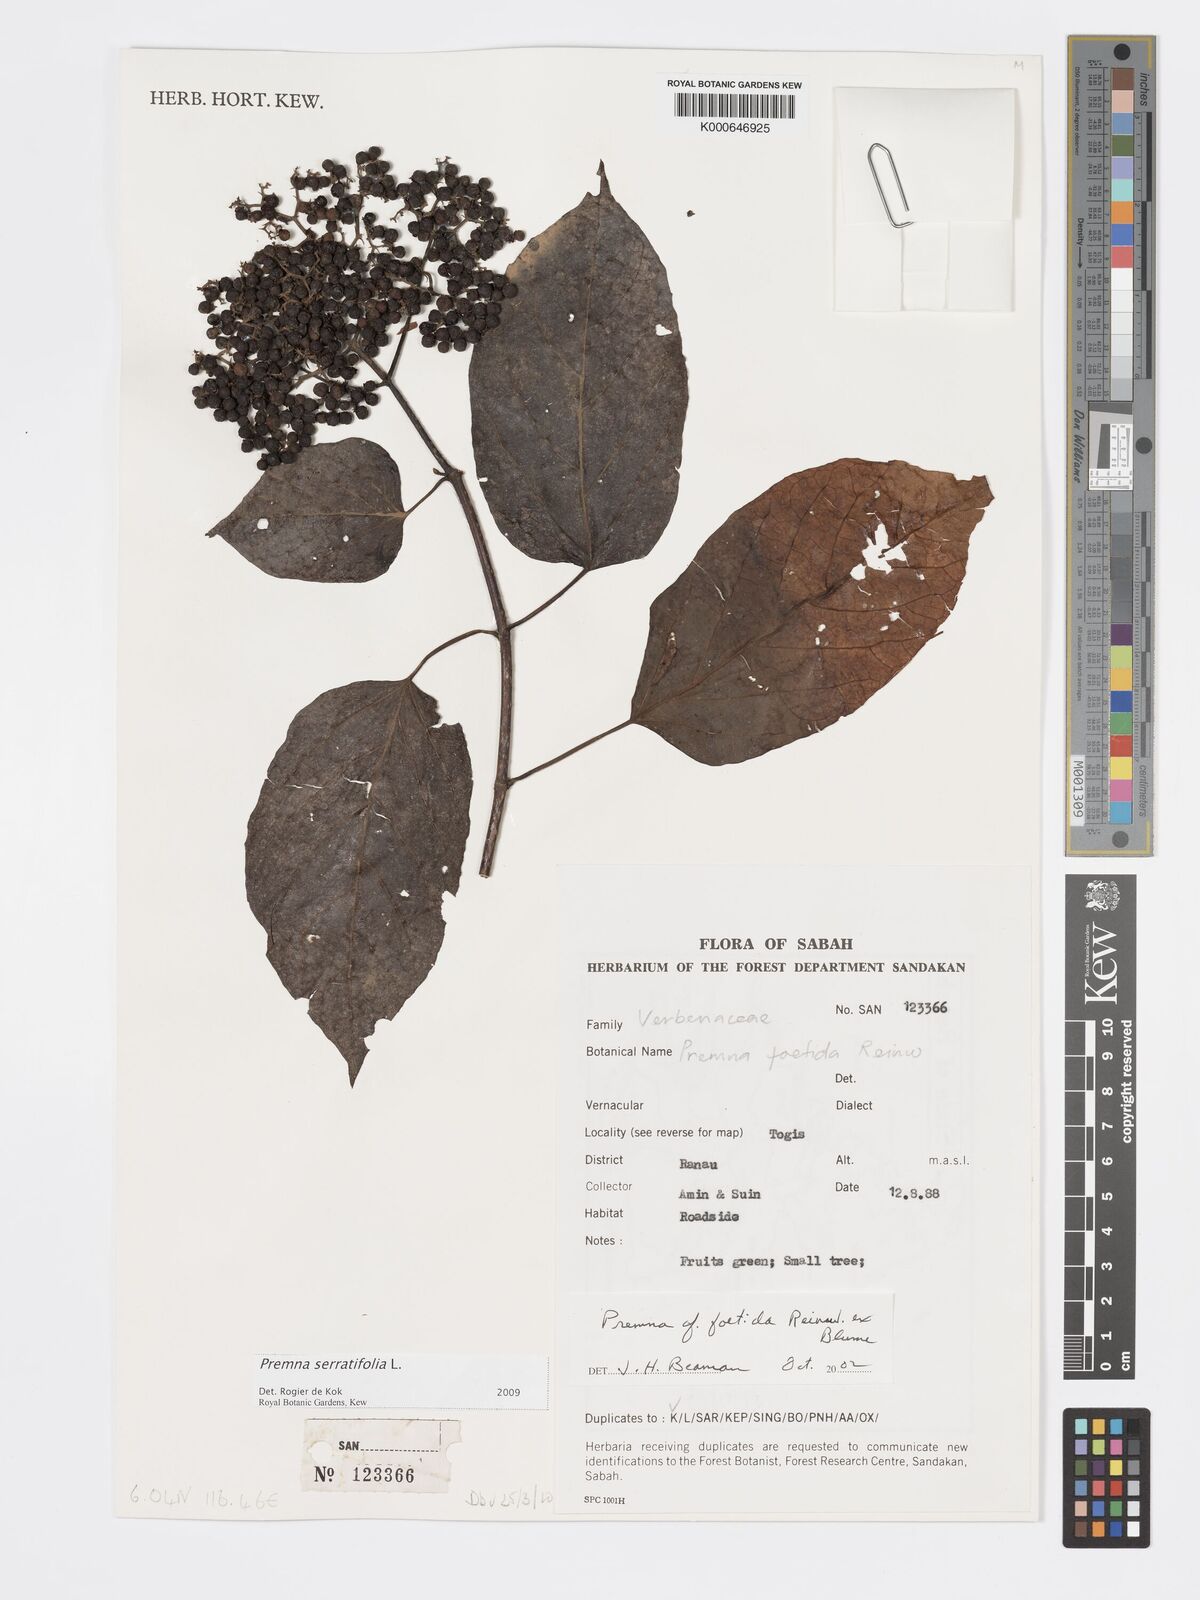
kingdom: Plantae
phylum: Tracheophyta
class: Magnoliopsida
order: Lamiales
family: Lamiaceae
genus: Premna
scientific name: Premna serratifolia
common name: Bastard guelder
